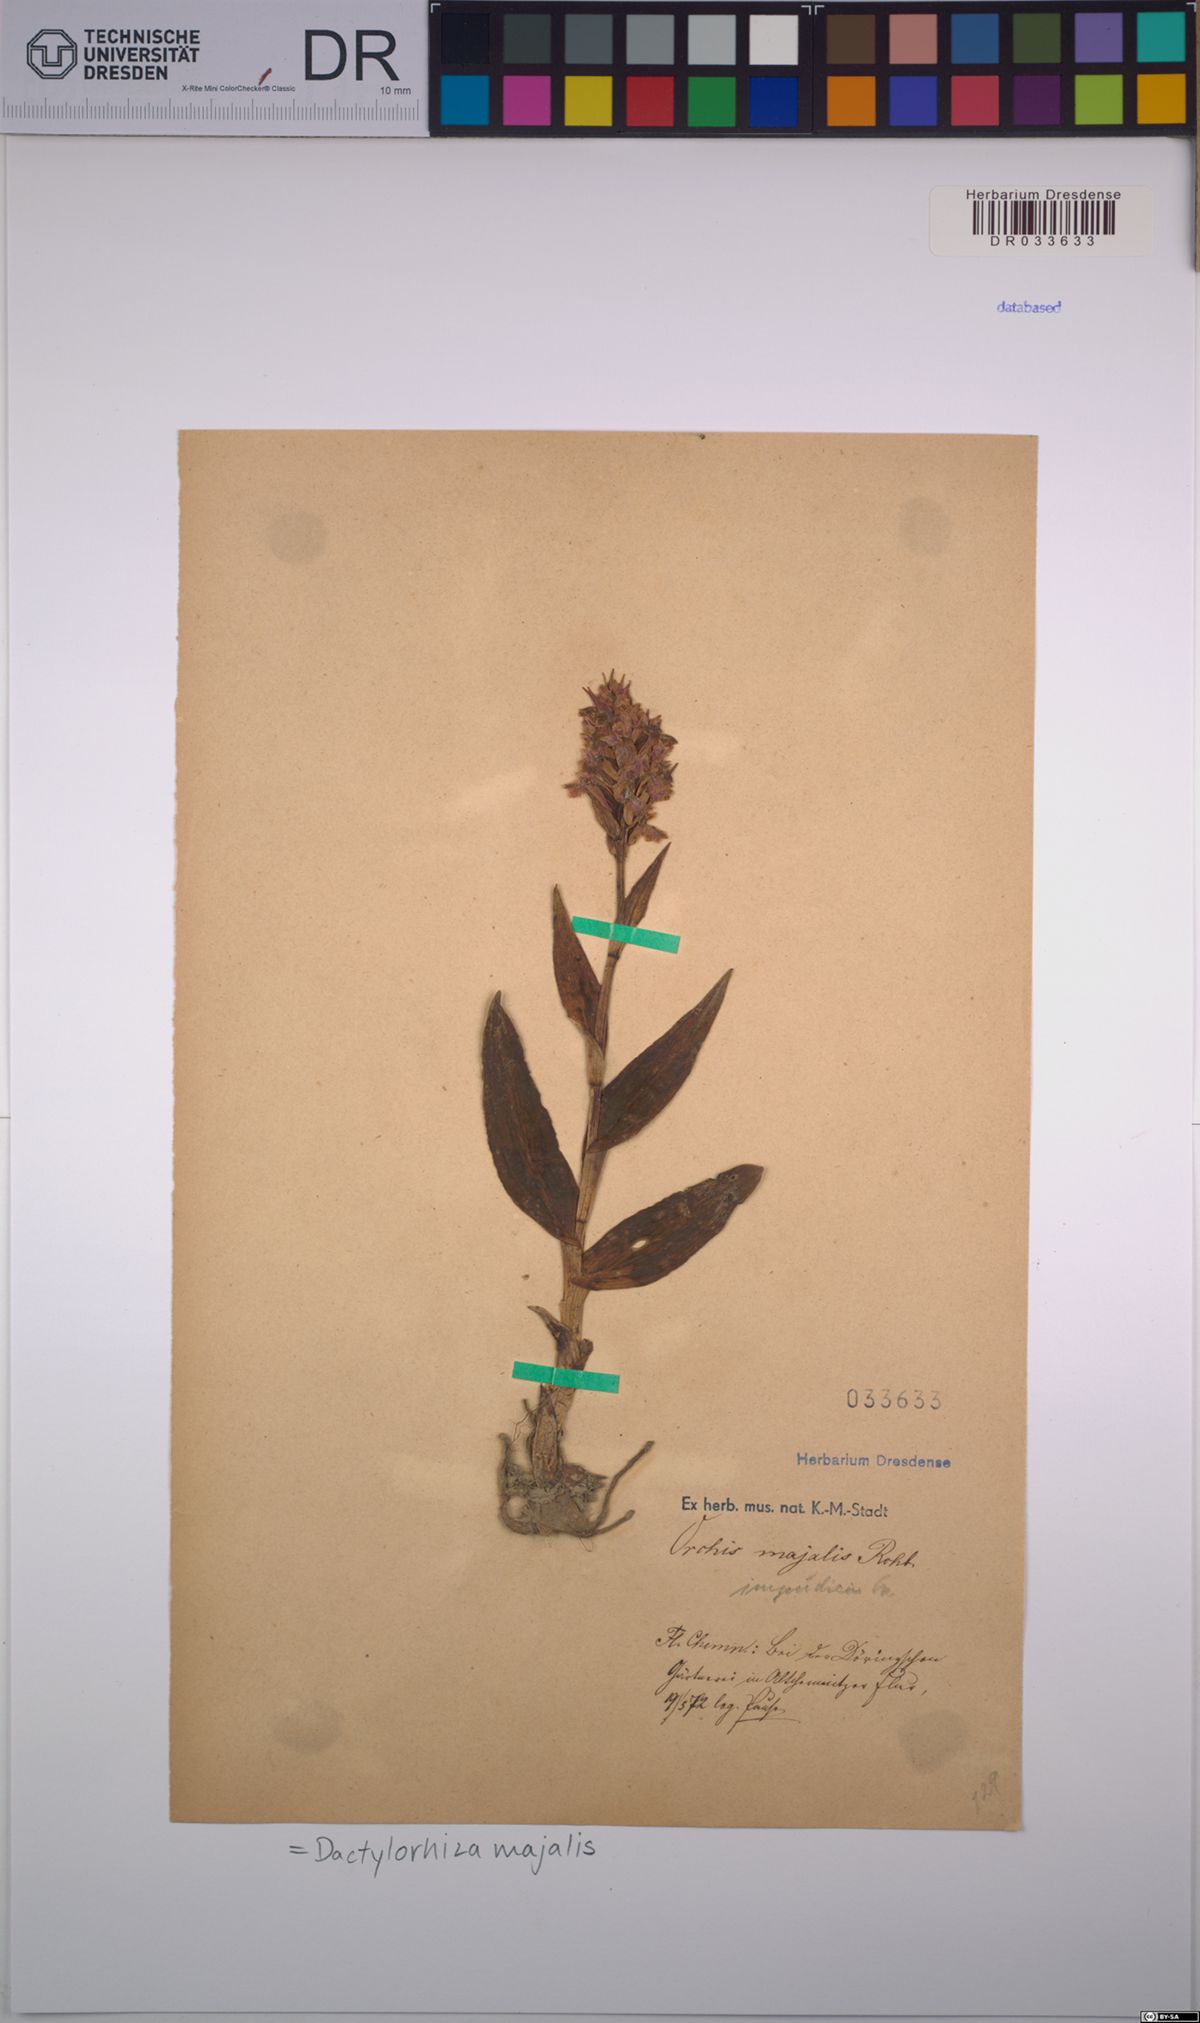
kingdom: Plantae
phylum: Tracheophyta
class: Liliopsida
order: Asparagales
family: Orchidaceae
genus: Dactylorhiza
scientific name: Dactylorhiza majalis
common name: Marsh orchid
